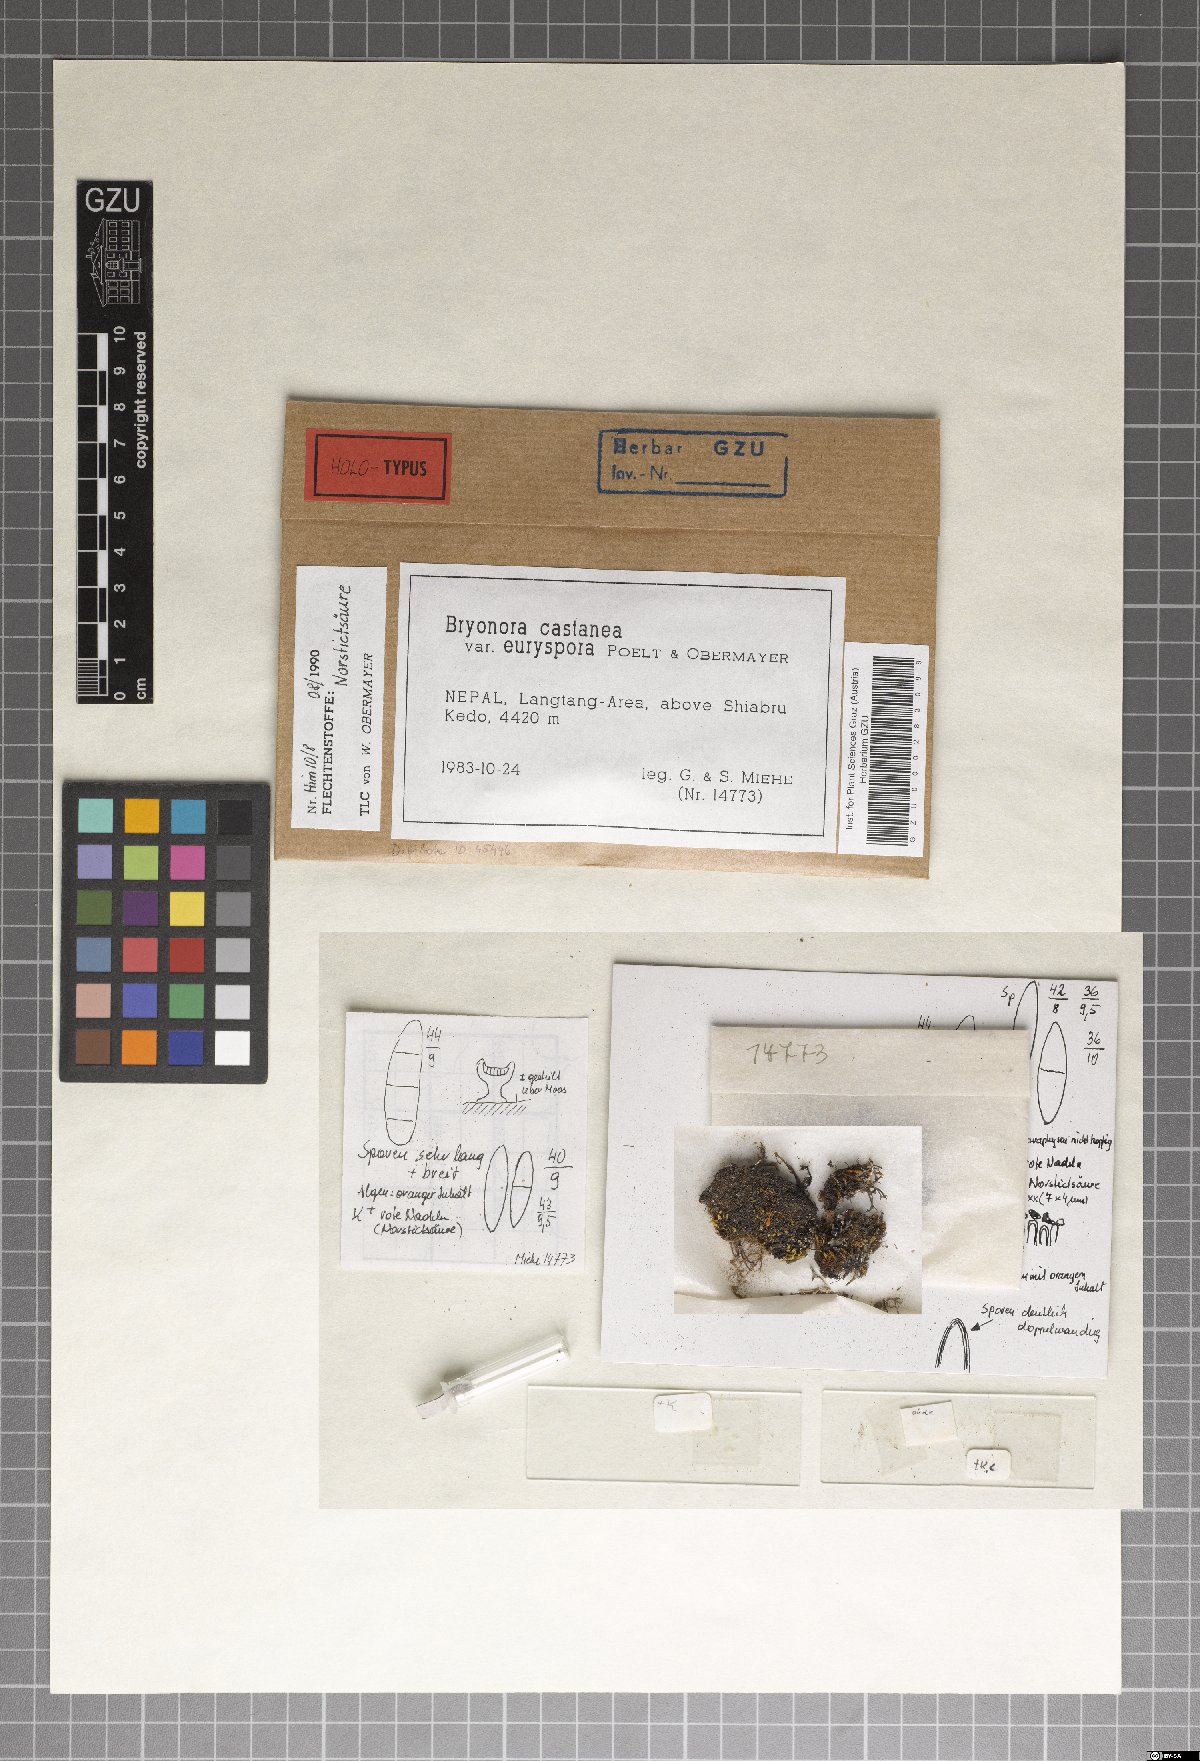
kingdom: Fungi
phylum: Ascomycota
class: Lecanoromycetes
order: Lecanorales
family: Lecanoraceae
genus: Bryonora
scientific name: Bryonora castanea
